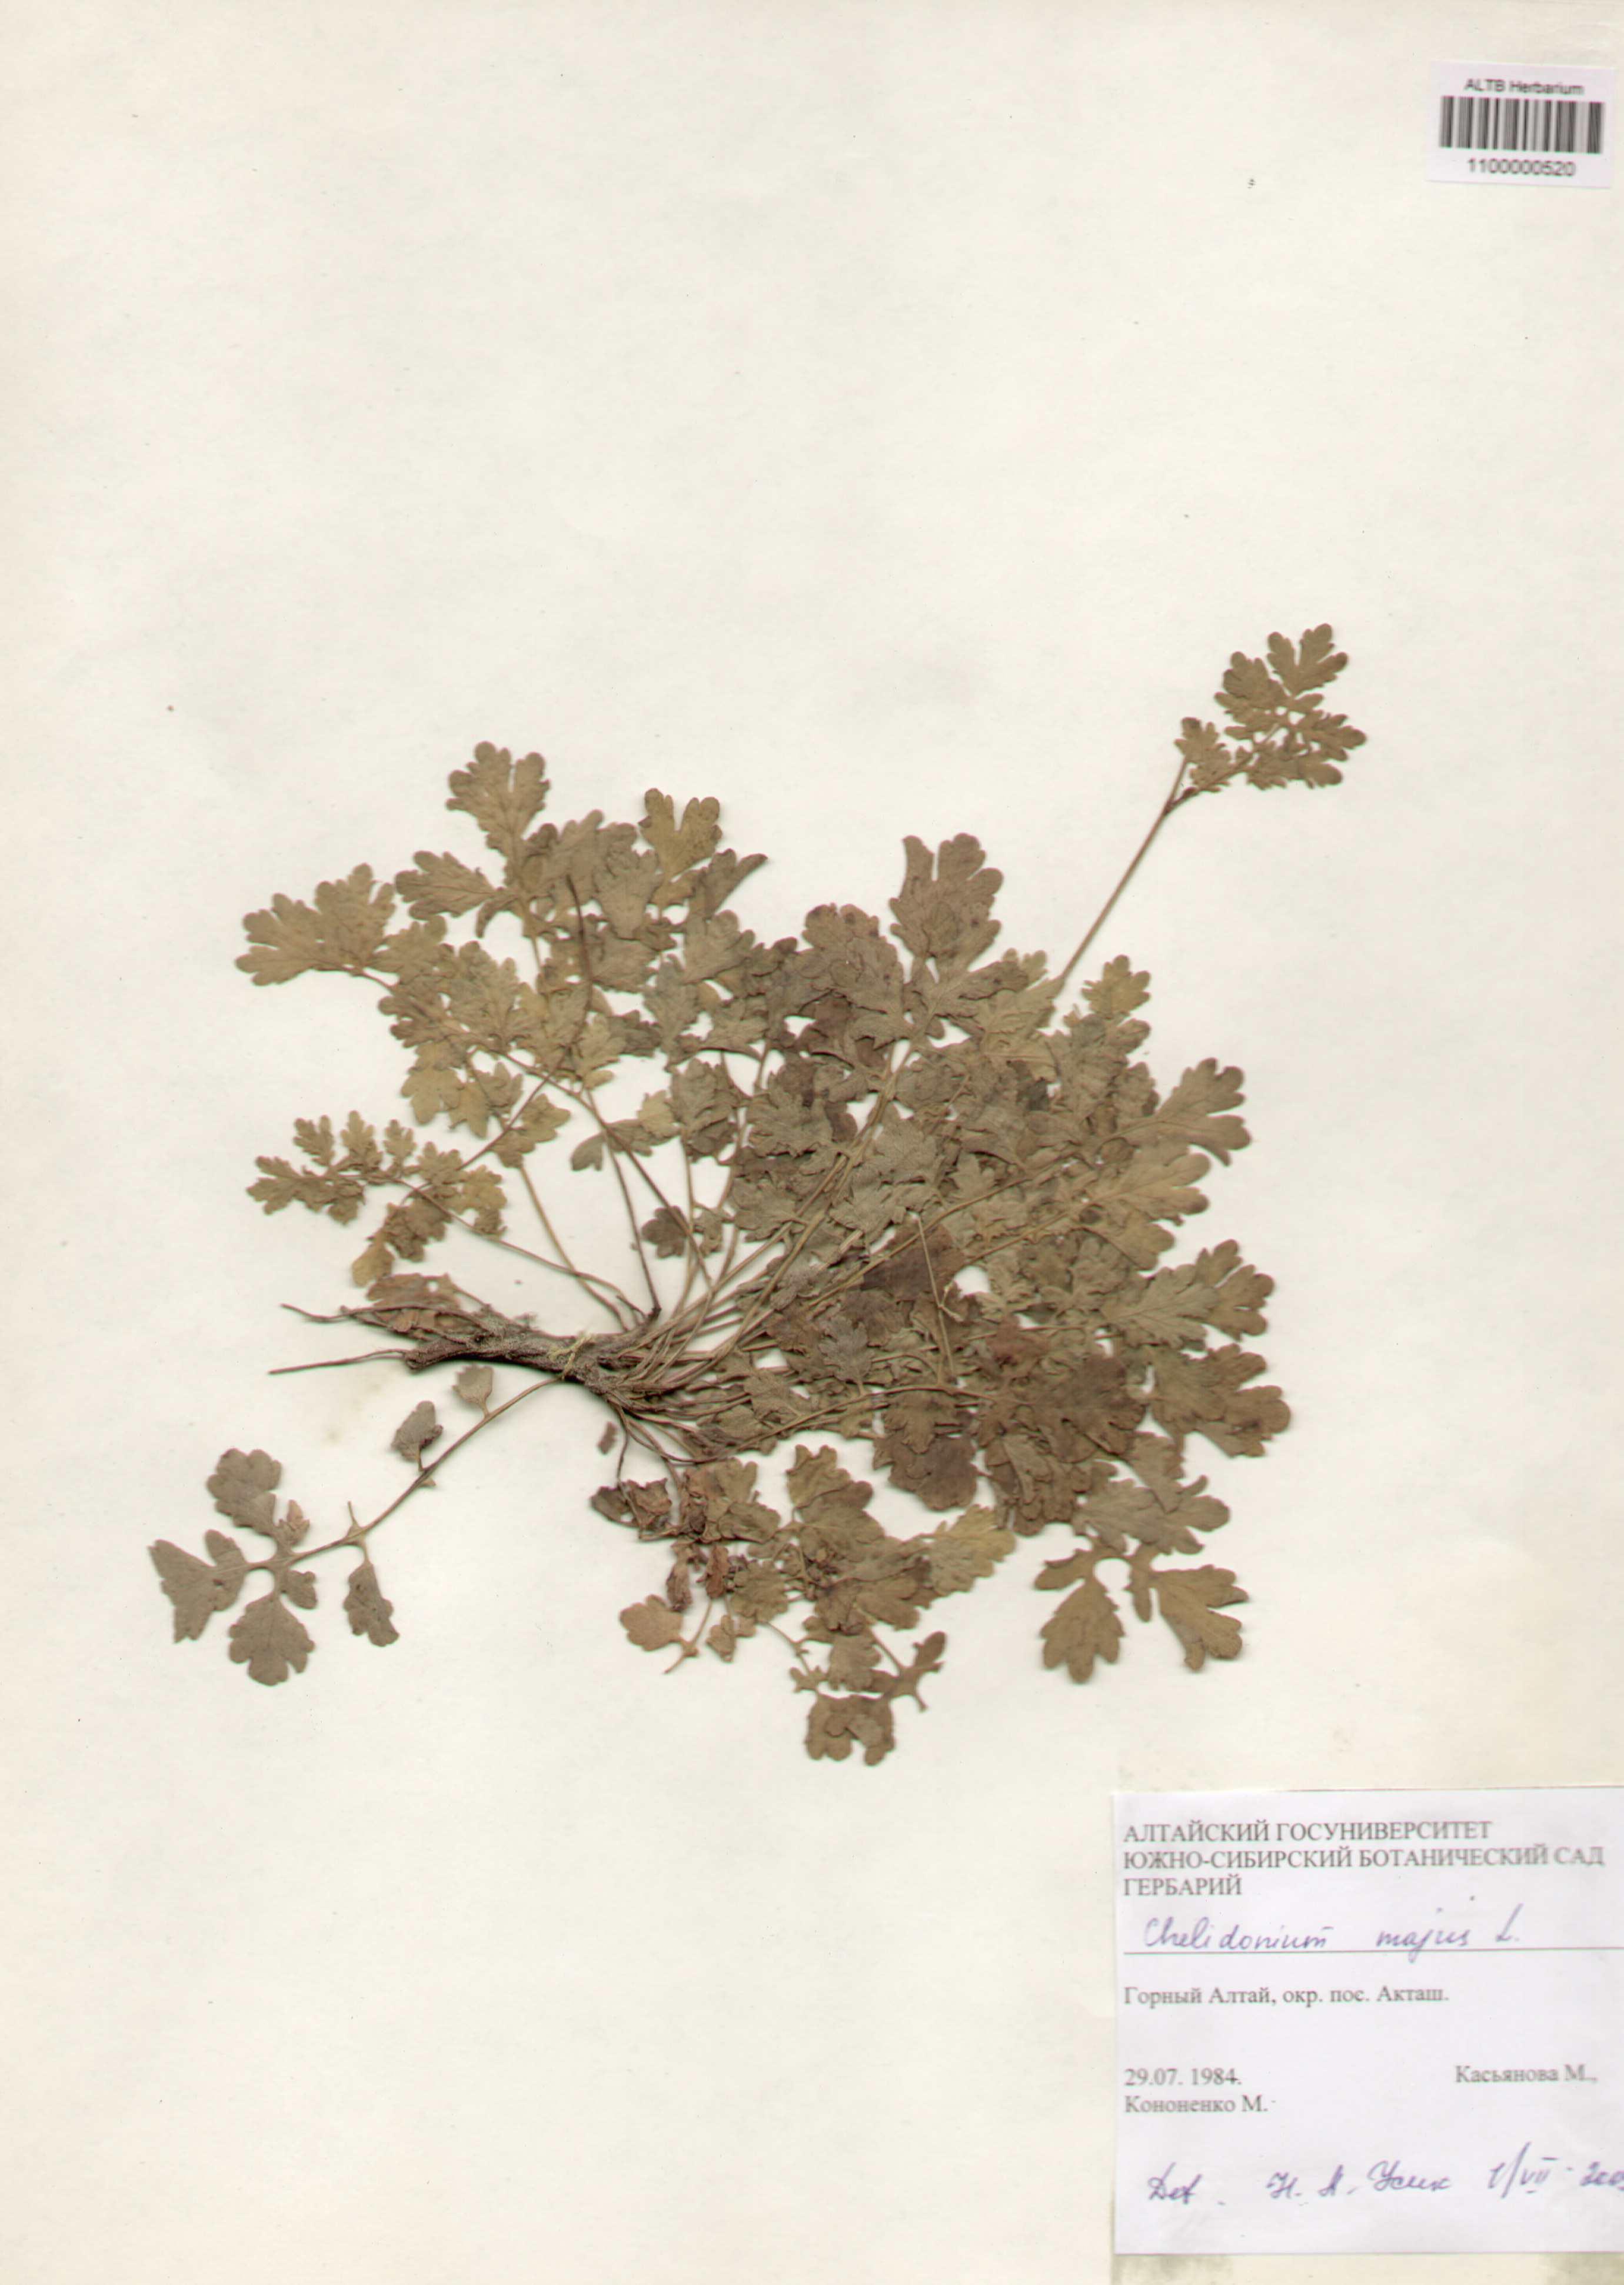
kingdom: Plantae
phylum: Tracheophyta
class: Magnoliopsida
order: Ranunculales
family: Papaveraceae
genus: Chelidonium
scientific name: Chelidonium majus
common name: Greater celandine
